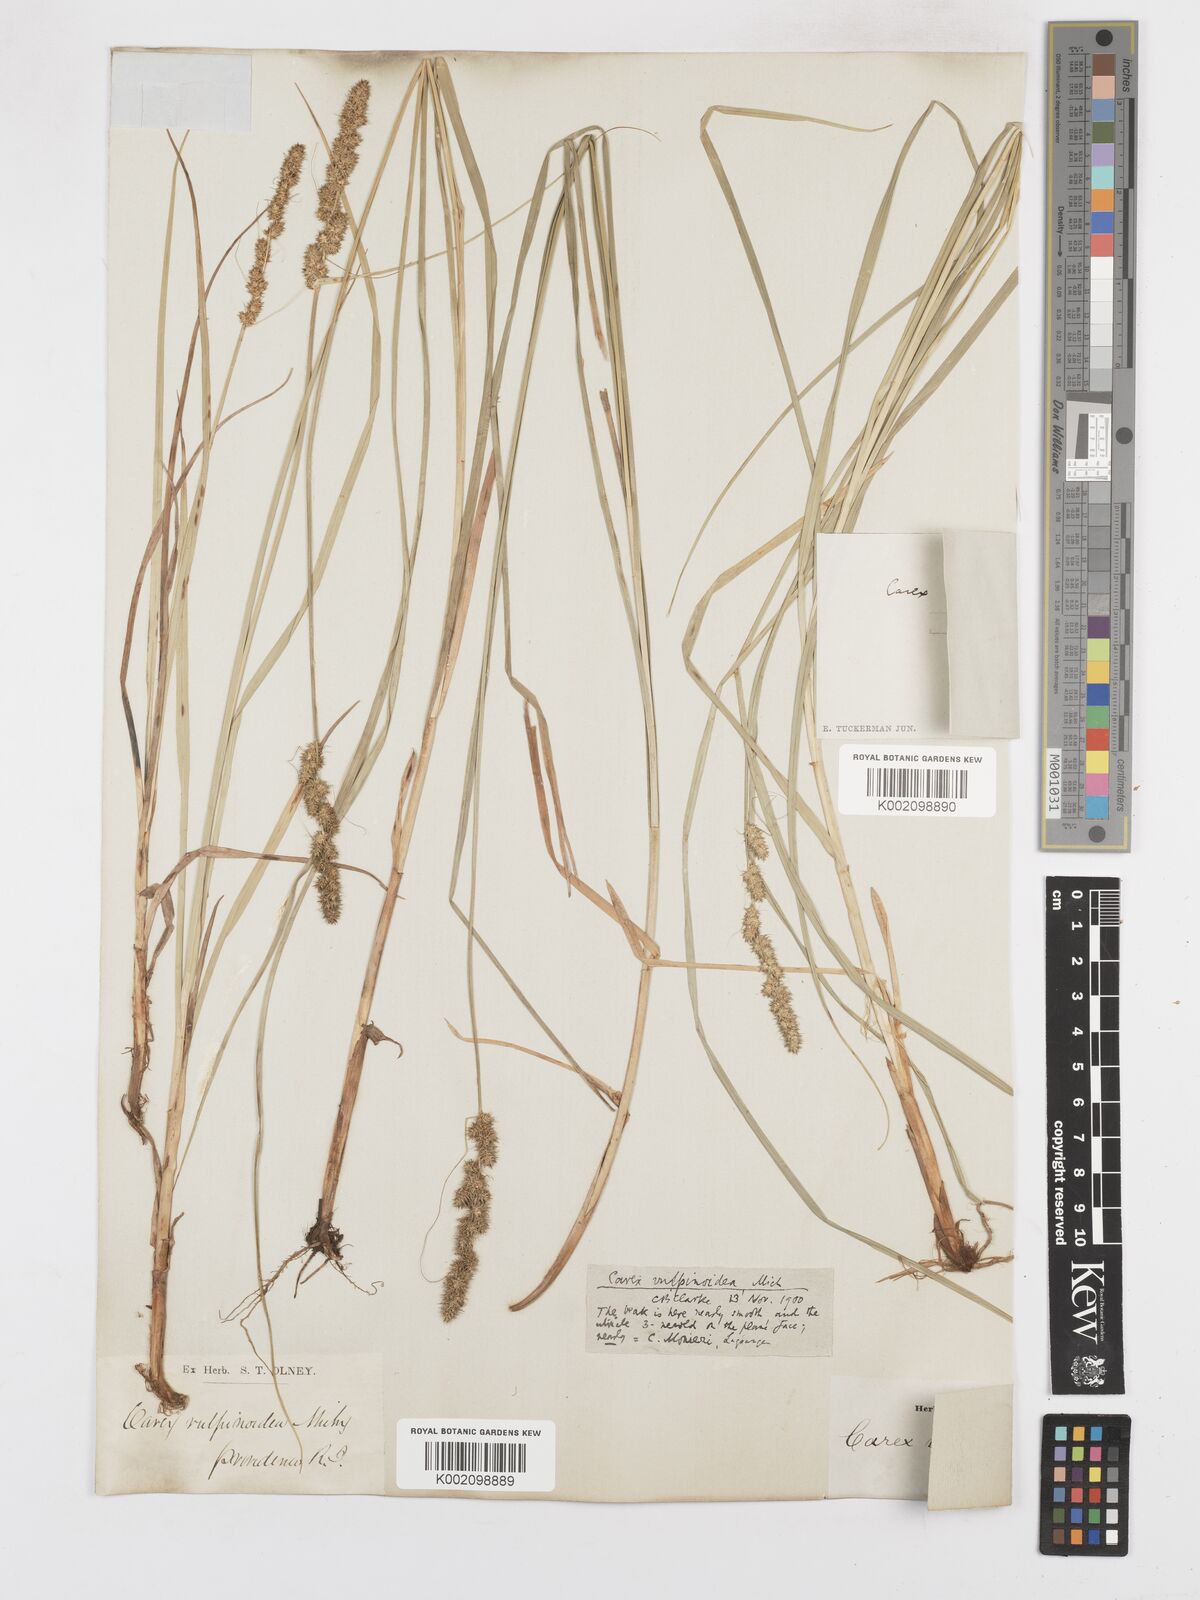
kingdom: Plantae
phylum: Tracheophyta
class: Liliopsida
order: Poales
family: Cyperaceae
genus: Carex
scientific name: Carex vulpinoidea
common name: American fox-sedge
